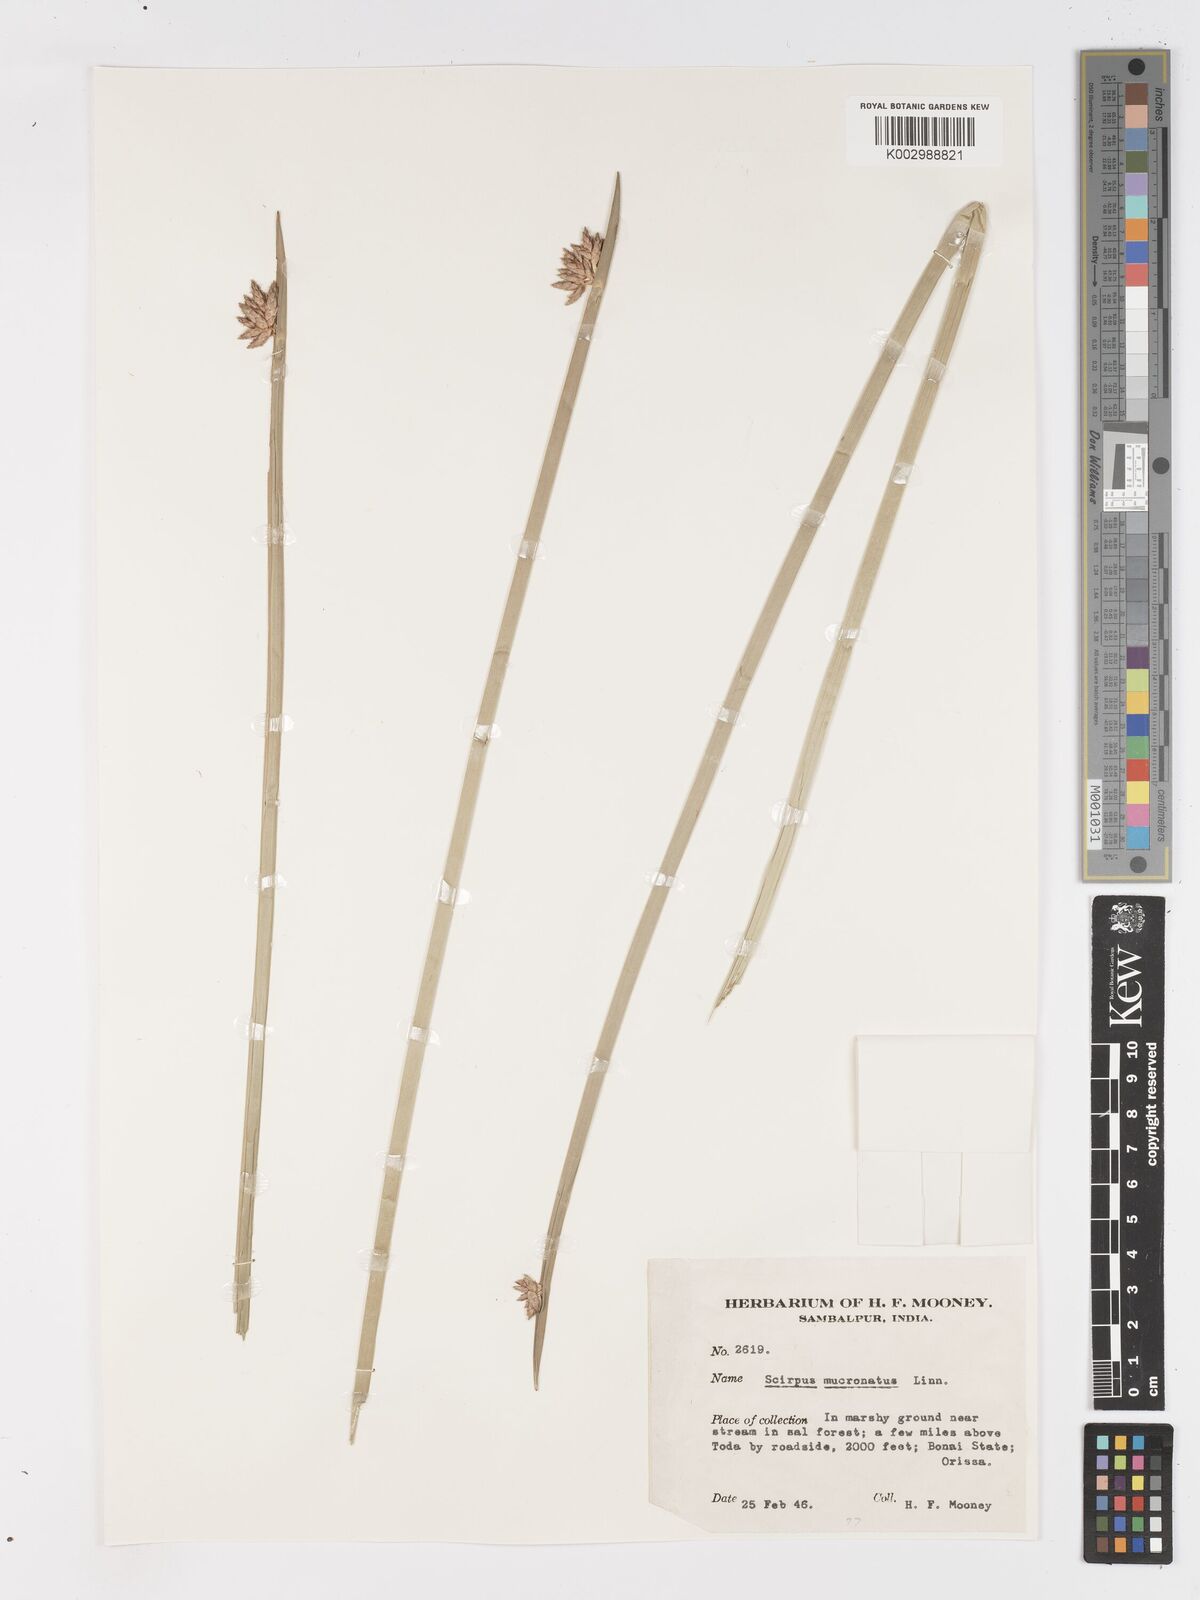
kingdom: Plantae
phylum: Tracheophyta
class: Liliopsida
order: Poales
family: Cyperaceae
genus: Schoenoplectiella
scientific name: Schoenoplectiella mucronata
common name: Bog bulrush
